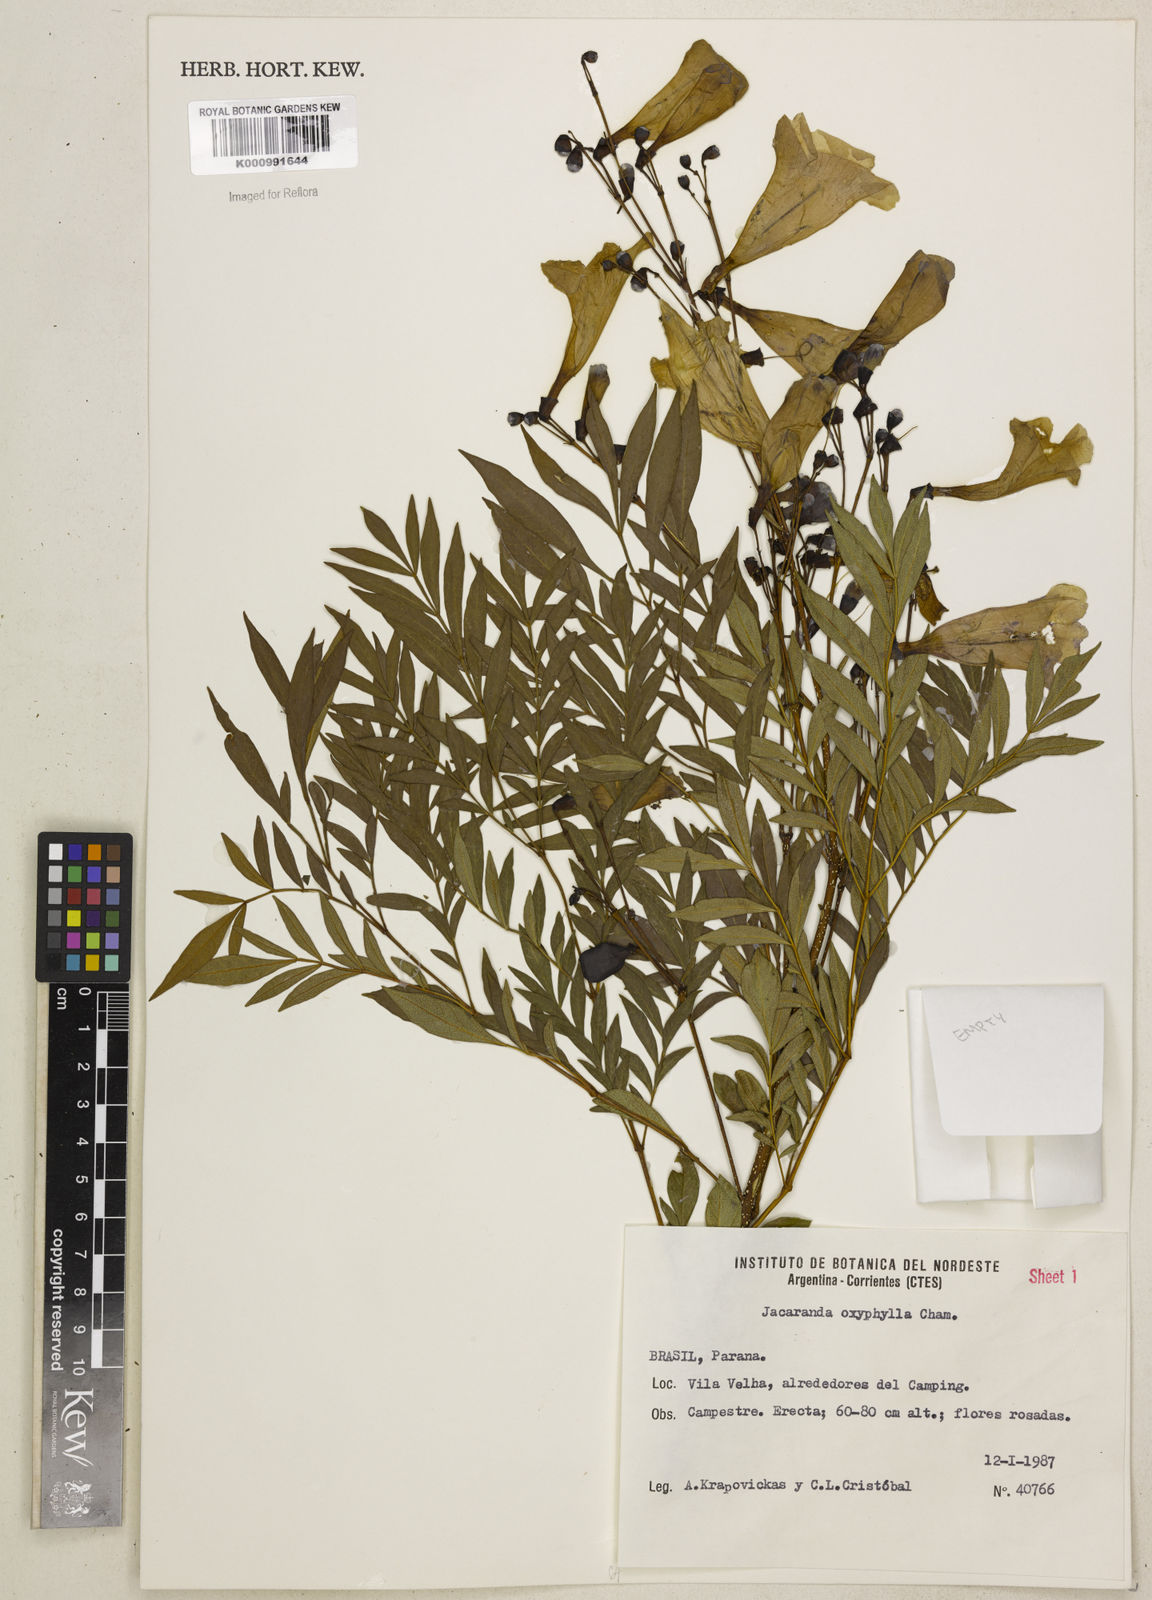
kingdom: Plantae
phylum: Tracheophyta
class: Magnoliopsida
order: Lamiales
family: Bignoniaceae
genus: Jacaranda
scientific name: Jacaranda caroba
